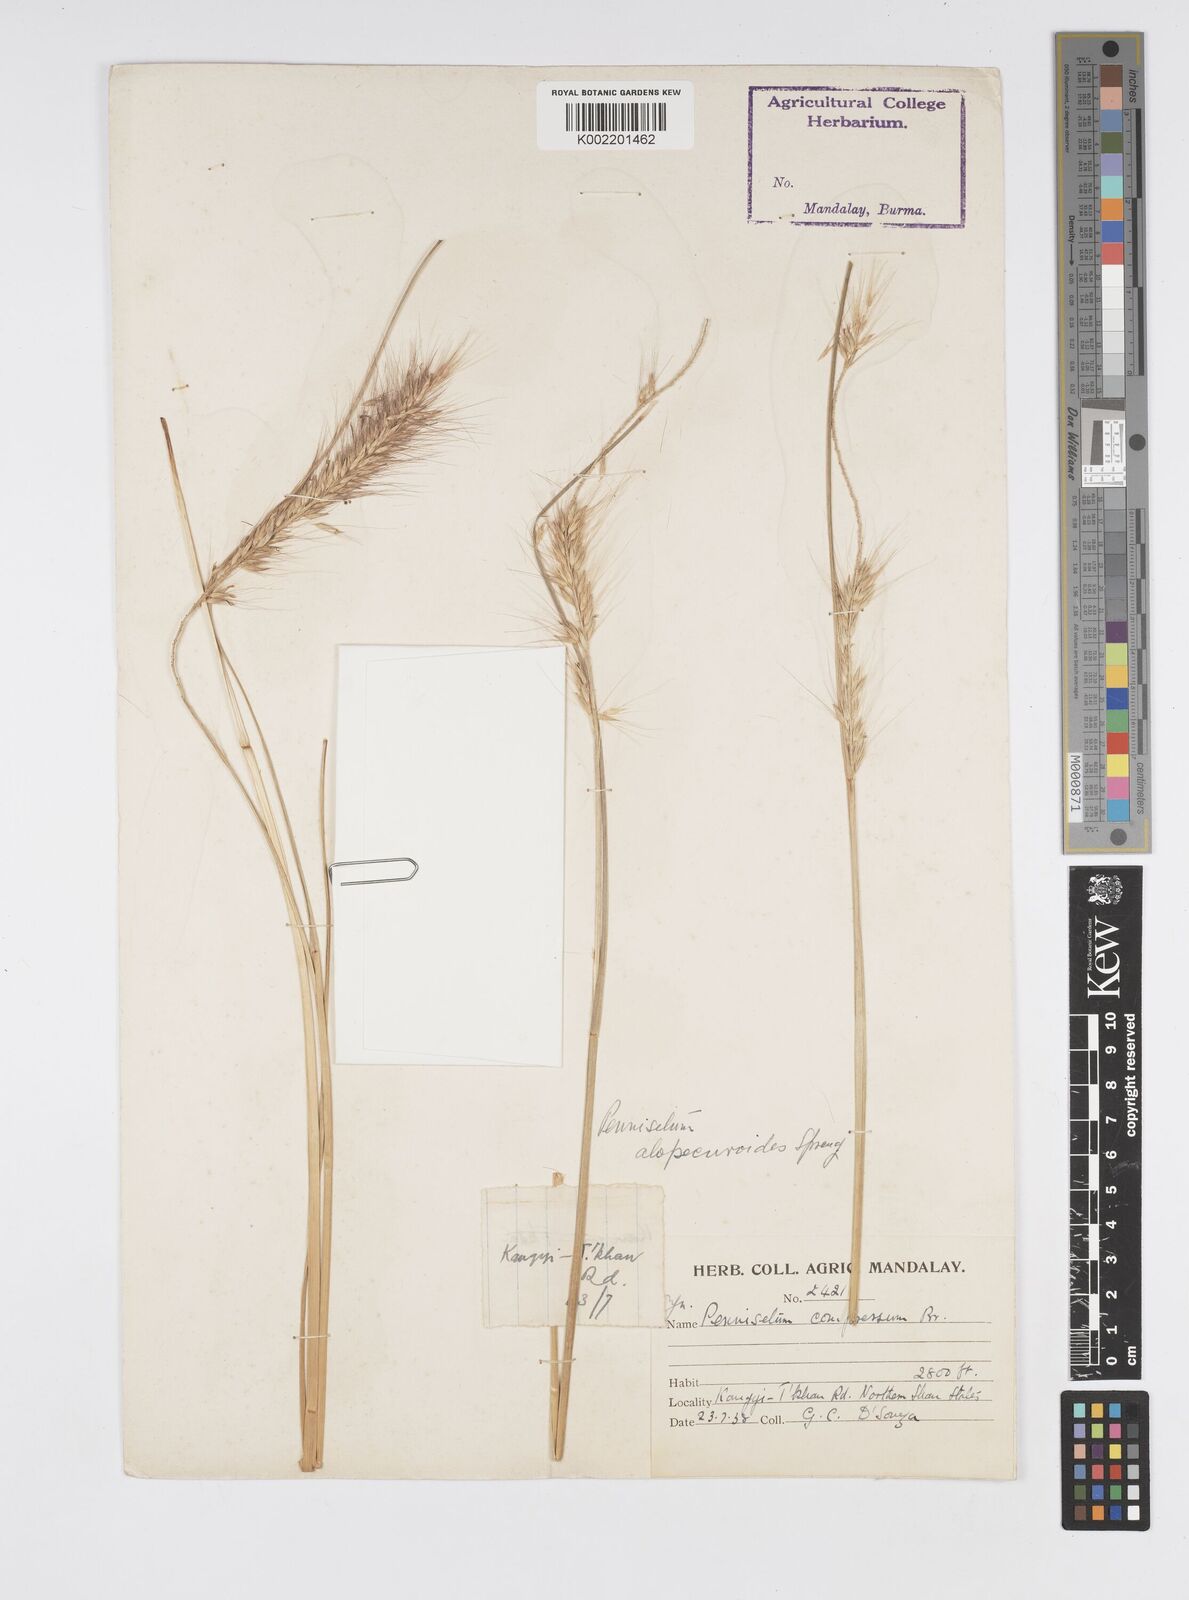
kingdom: Plantae
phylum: Tracheophyta
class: Liliopsida
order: Poales
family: Poaceae
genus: Cenchrus
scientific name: Cenchrus alopecuroides
